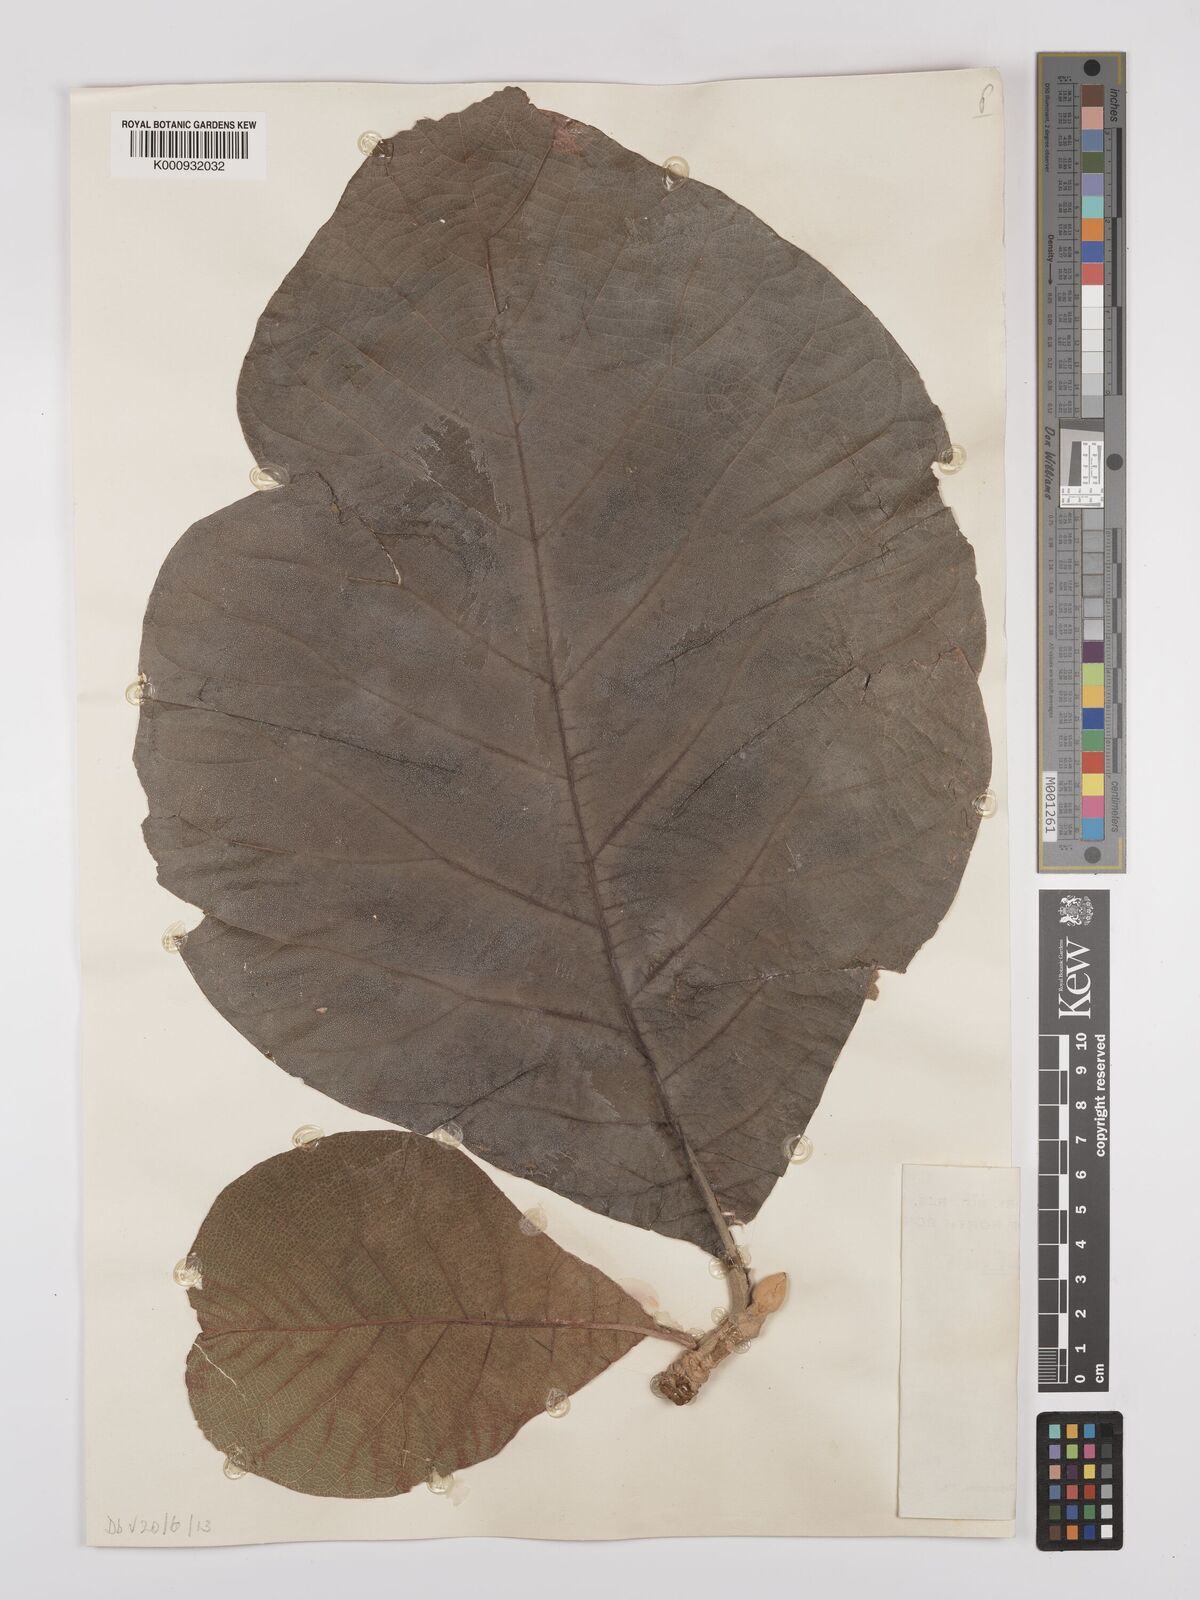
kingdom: Plantae
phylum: Tracheophyta
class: Magnoliopsida
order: Lamiales
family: Lamiaceae
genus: Tectona
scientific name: Tectona grandis
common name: Teak
